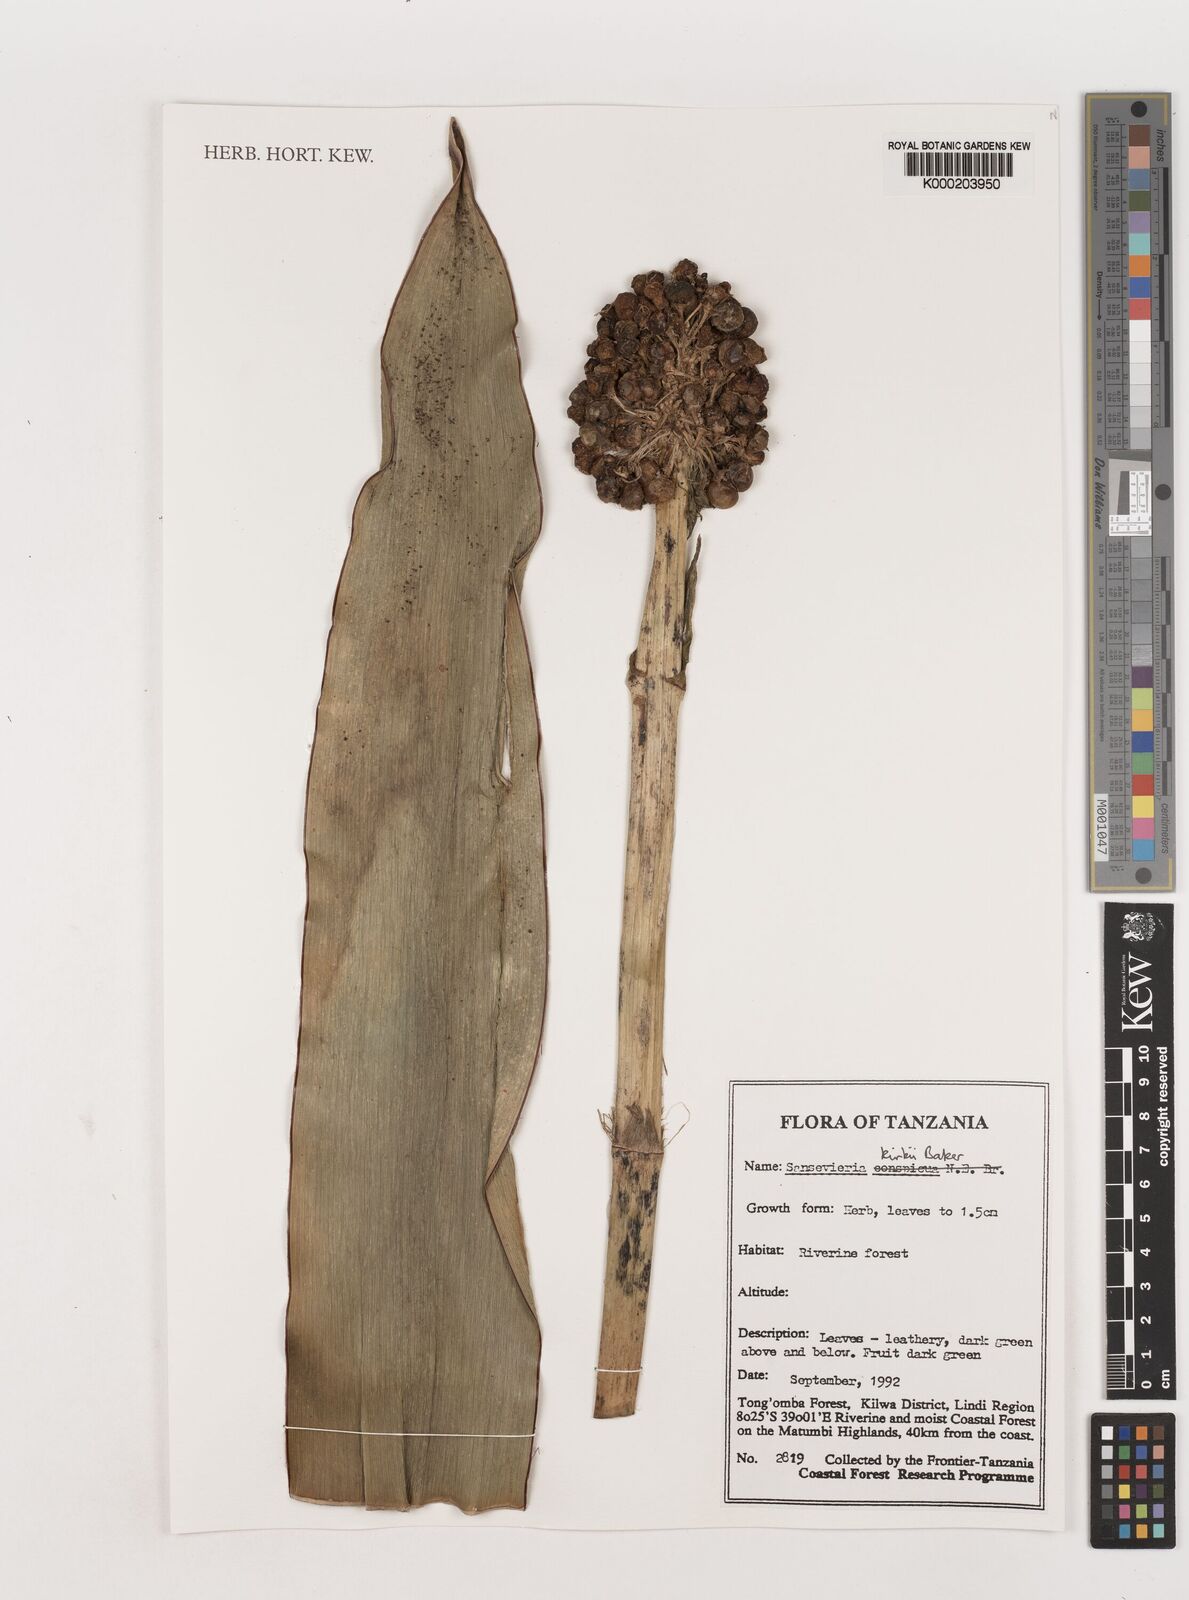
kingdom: Plantae
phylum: Tracheophyta
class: Liliopsida
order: Asparagales
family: Asparagaceae
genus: Dracaena
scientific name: Dracaena pethera
